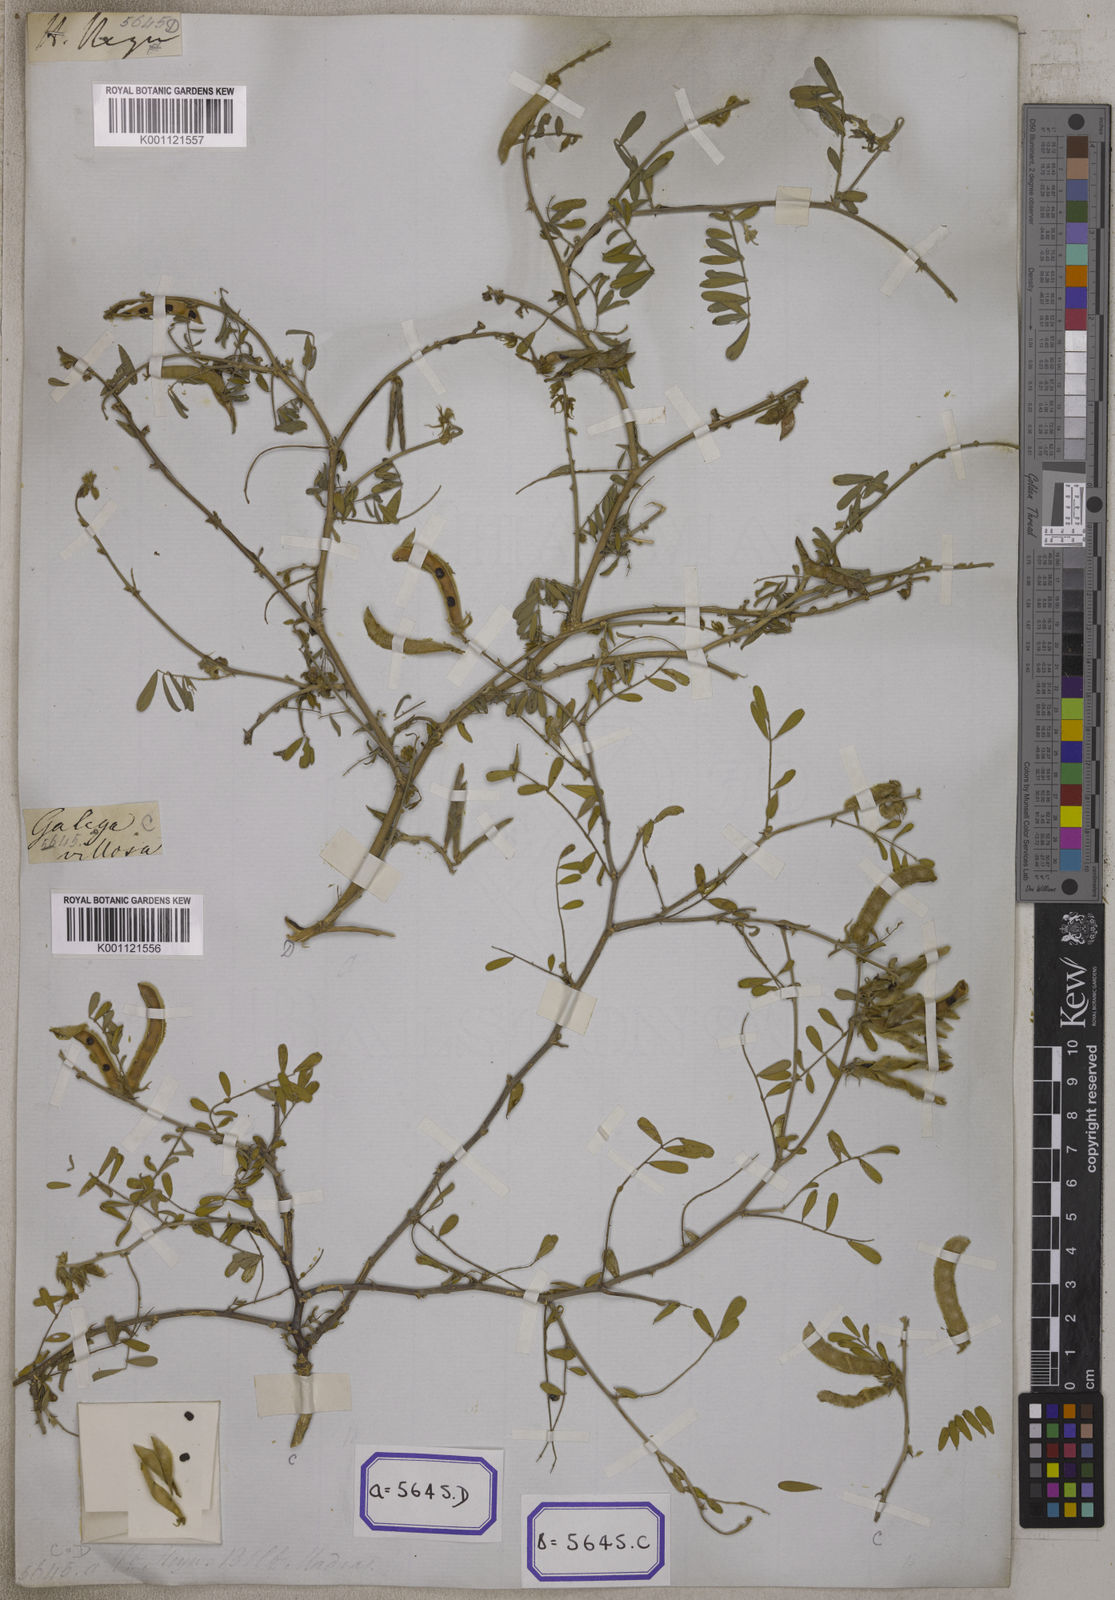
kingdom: Plantae
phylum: Tracheophyta
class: Magnoliopsida
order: Fabales
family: Fabaceae
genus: Tephrosia
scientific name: Tephrosia villosa
